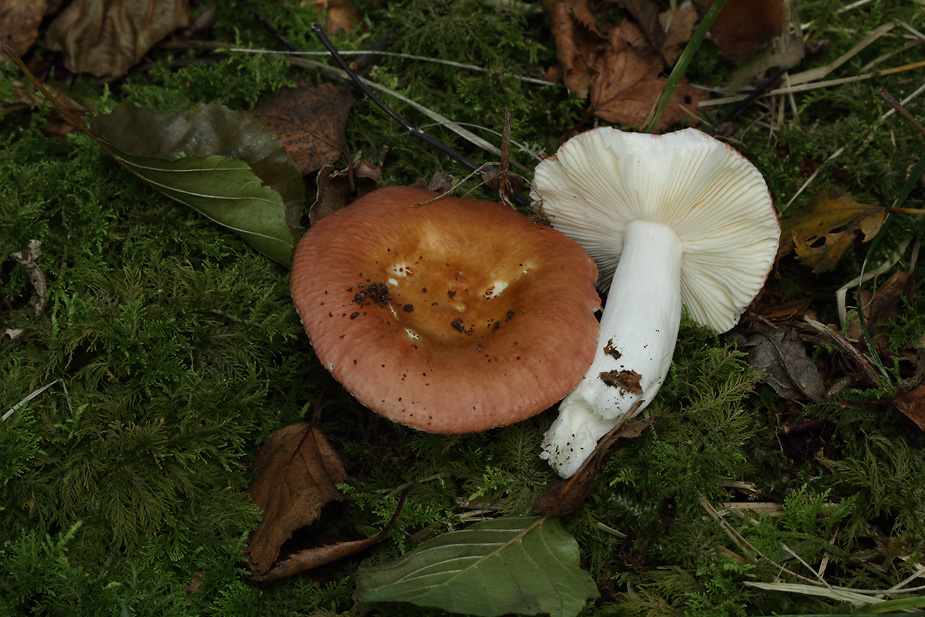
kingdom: Fungi
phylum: Basidiomycota
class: Agaricomycetes
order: Russulales
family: Russulaceae
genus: Russula
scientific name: Russula velenovskyi
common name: orangerød skørhat
